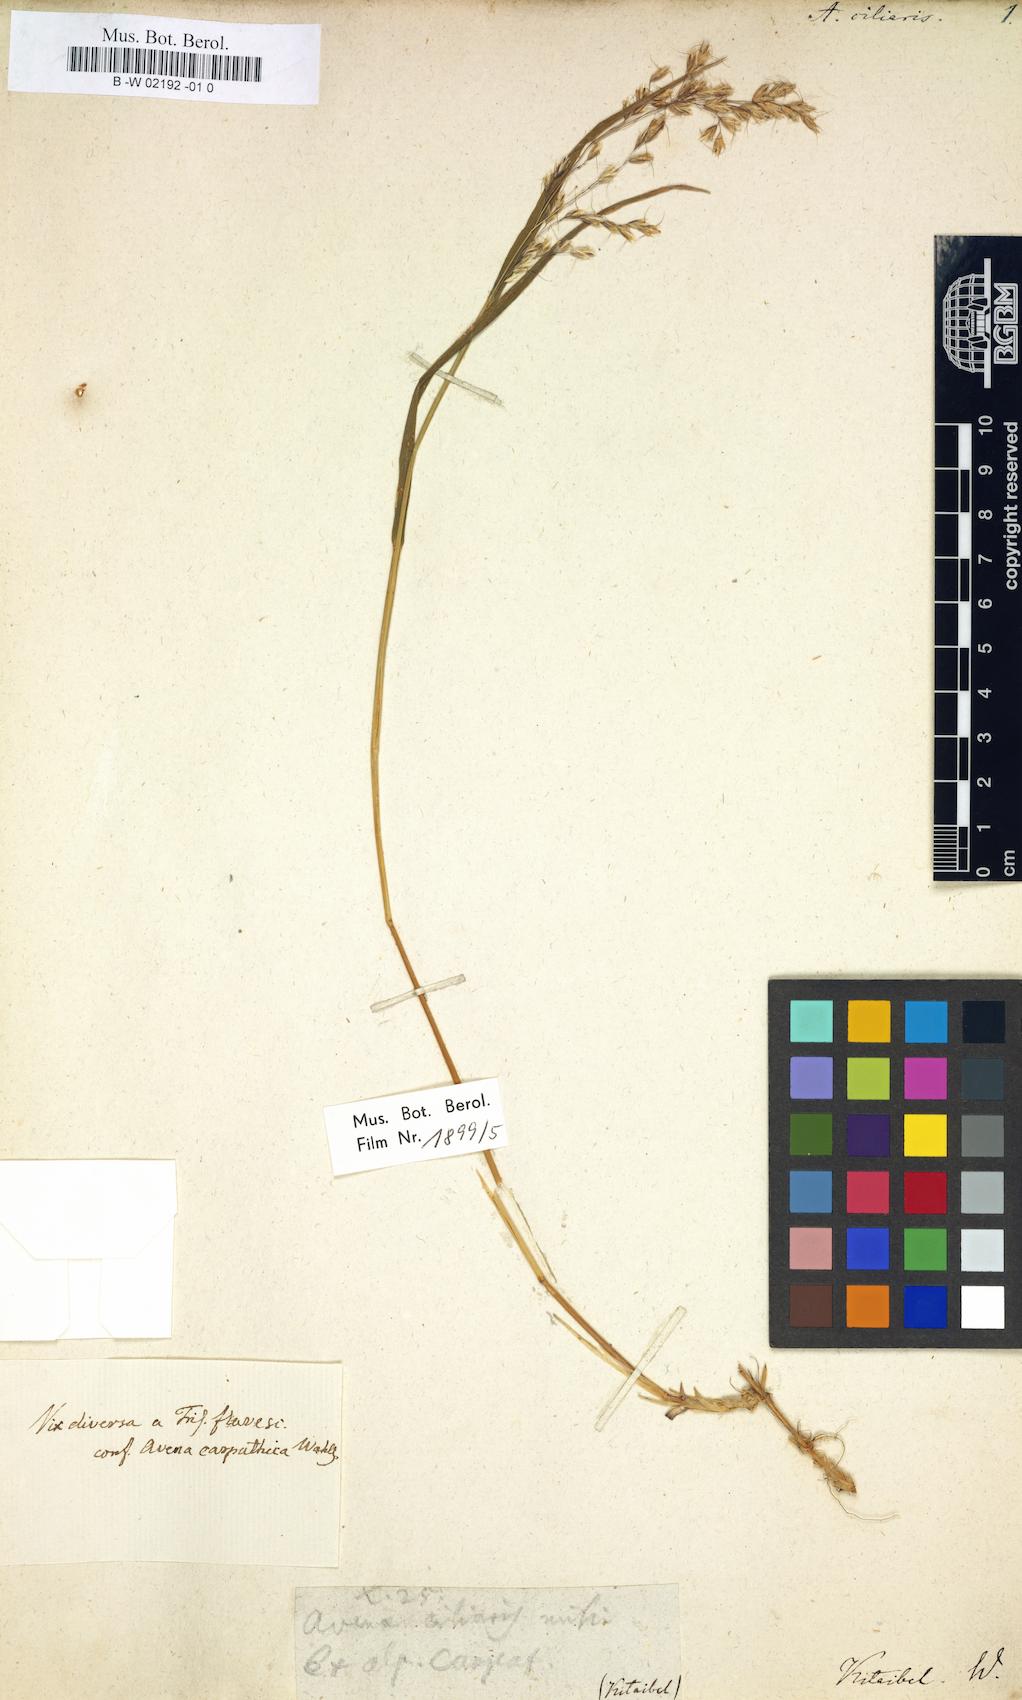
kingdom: Plantae
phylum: Tracheophyta
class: Liliopsida
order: Poales
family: Poaceae
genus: Trisetum
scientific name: Trisetum fuscum
